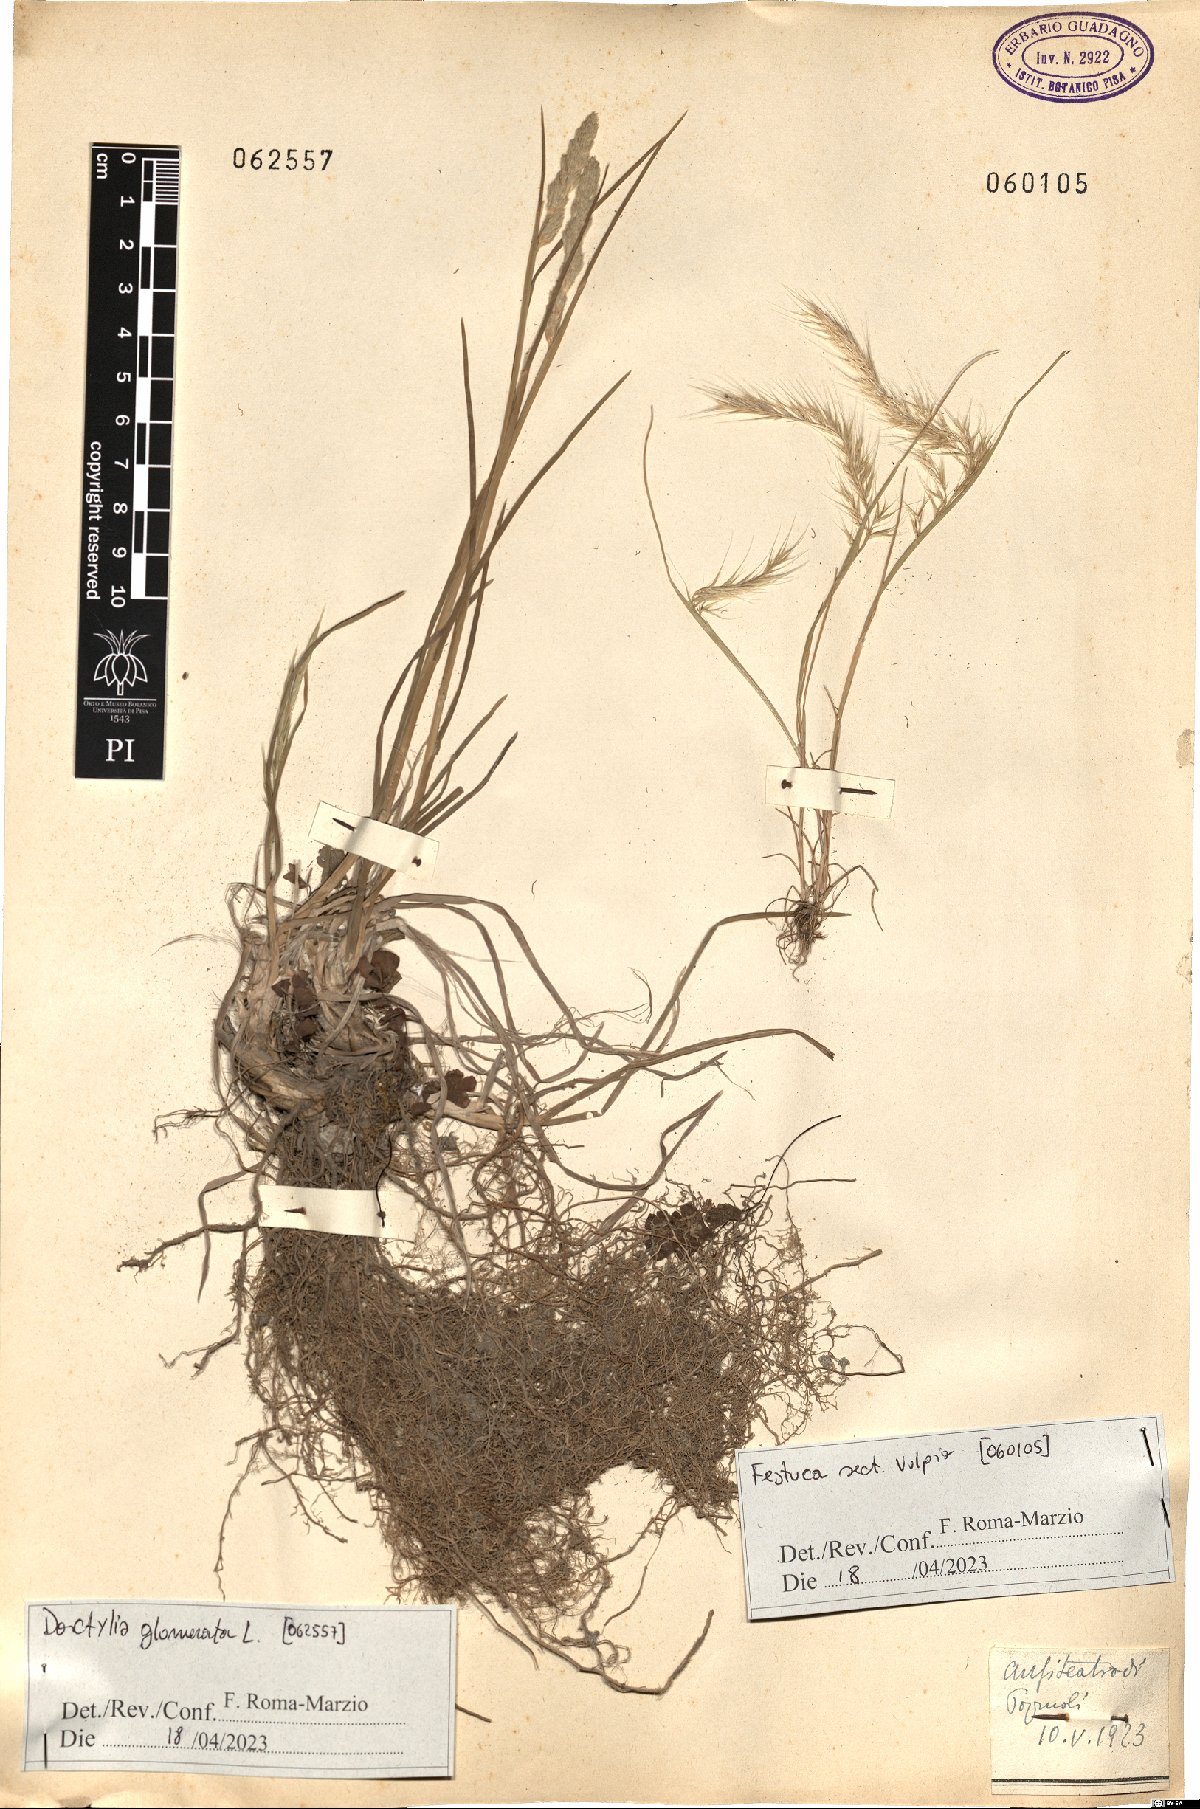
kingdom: Plantae
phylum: Tracheophyta
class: Liliopsida
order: Poales
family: Poaceae
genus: Dactylis
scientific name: Dactylis glomerata
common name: Orchardgrass
